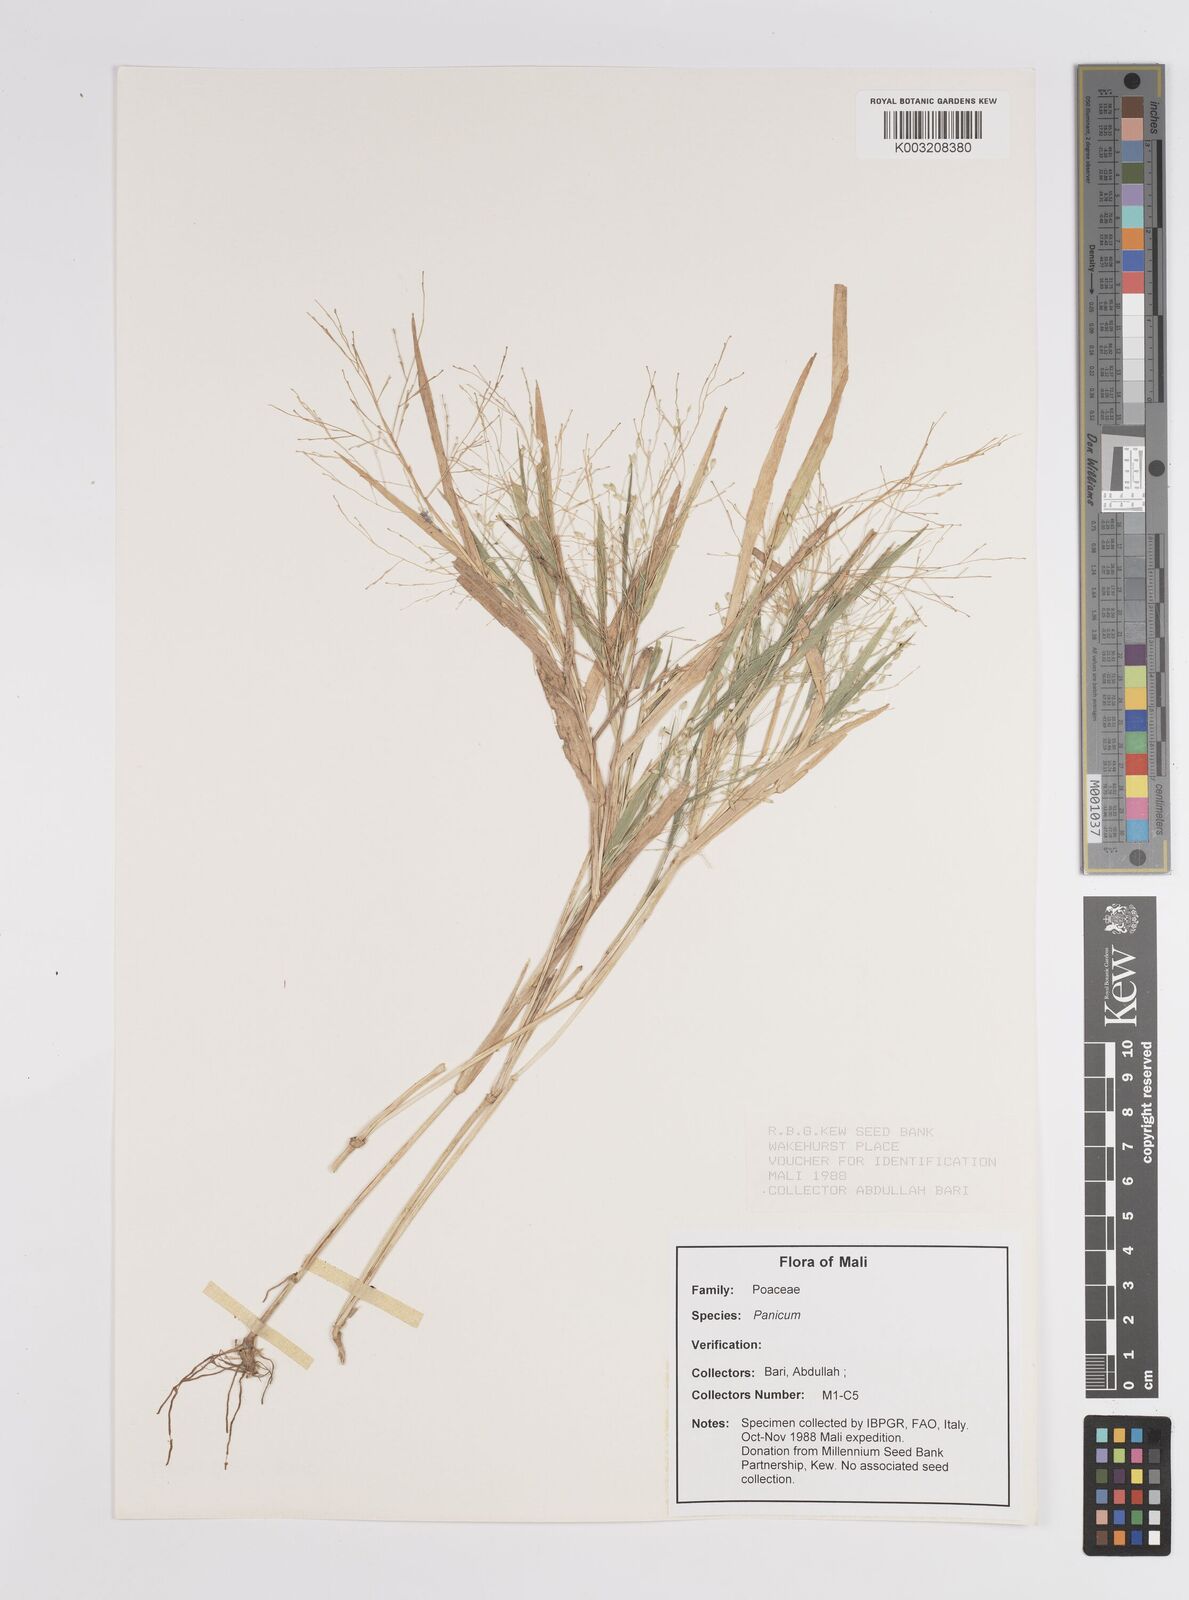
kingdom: Plantae
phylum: Tracheophyta
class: Liliopsida
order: Poales
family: Poaceae
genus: Panicum
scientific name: Panicum
